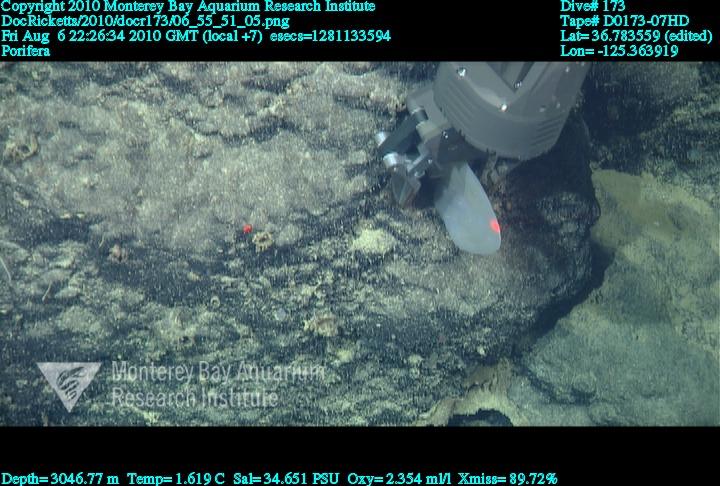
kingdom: Animalia
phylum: Porifera
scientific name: Porifera
